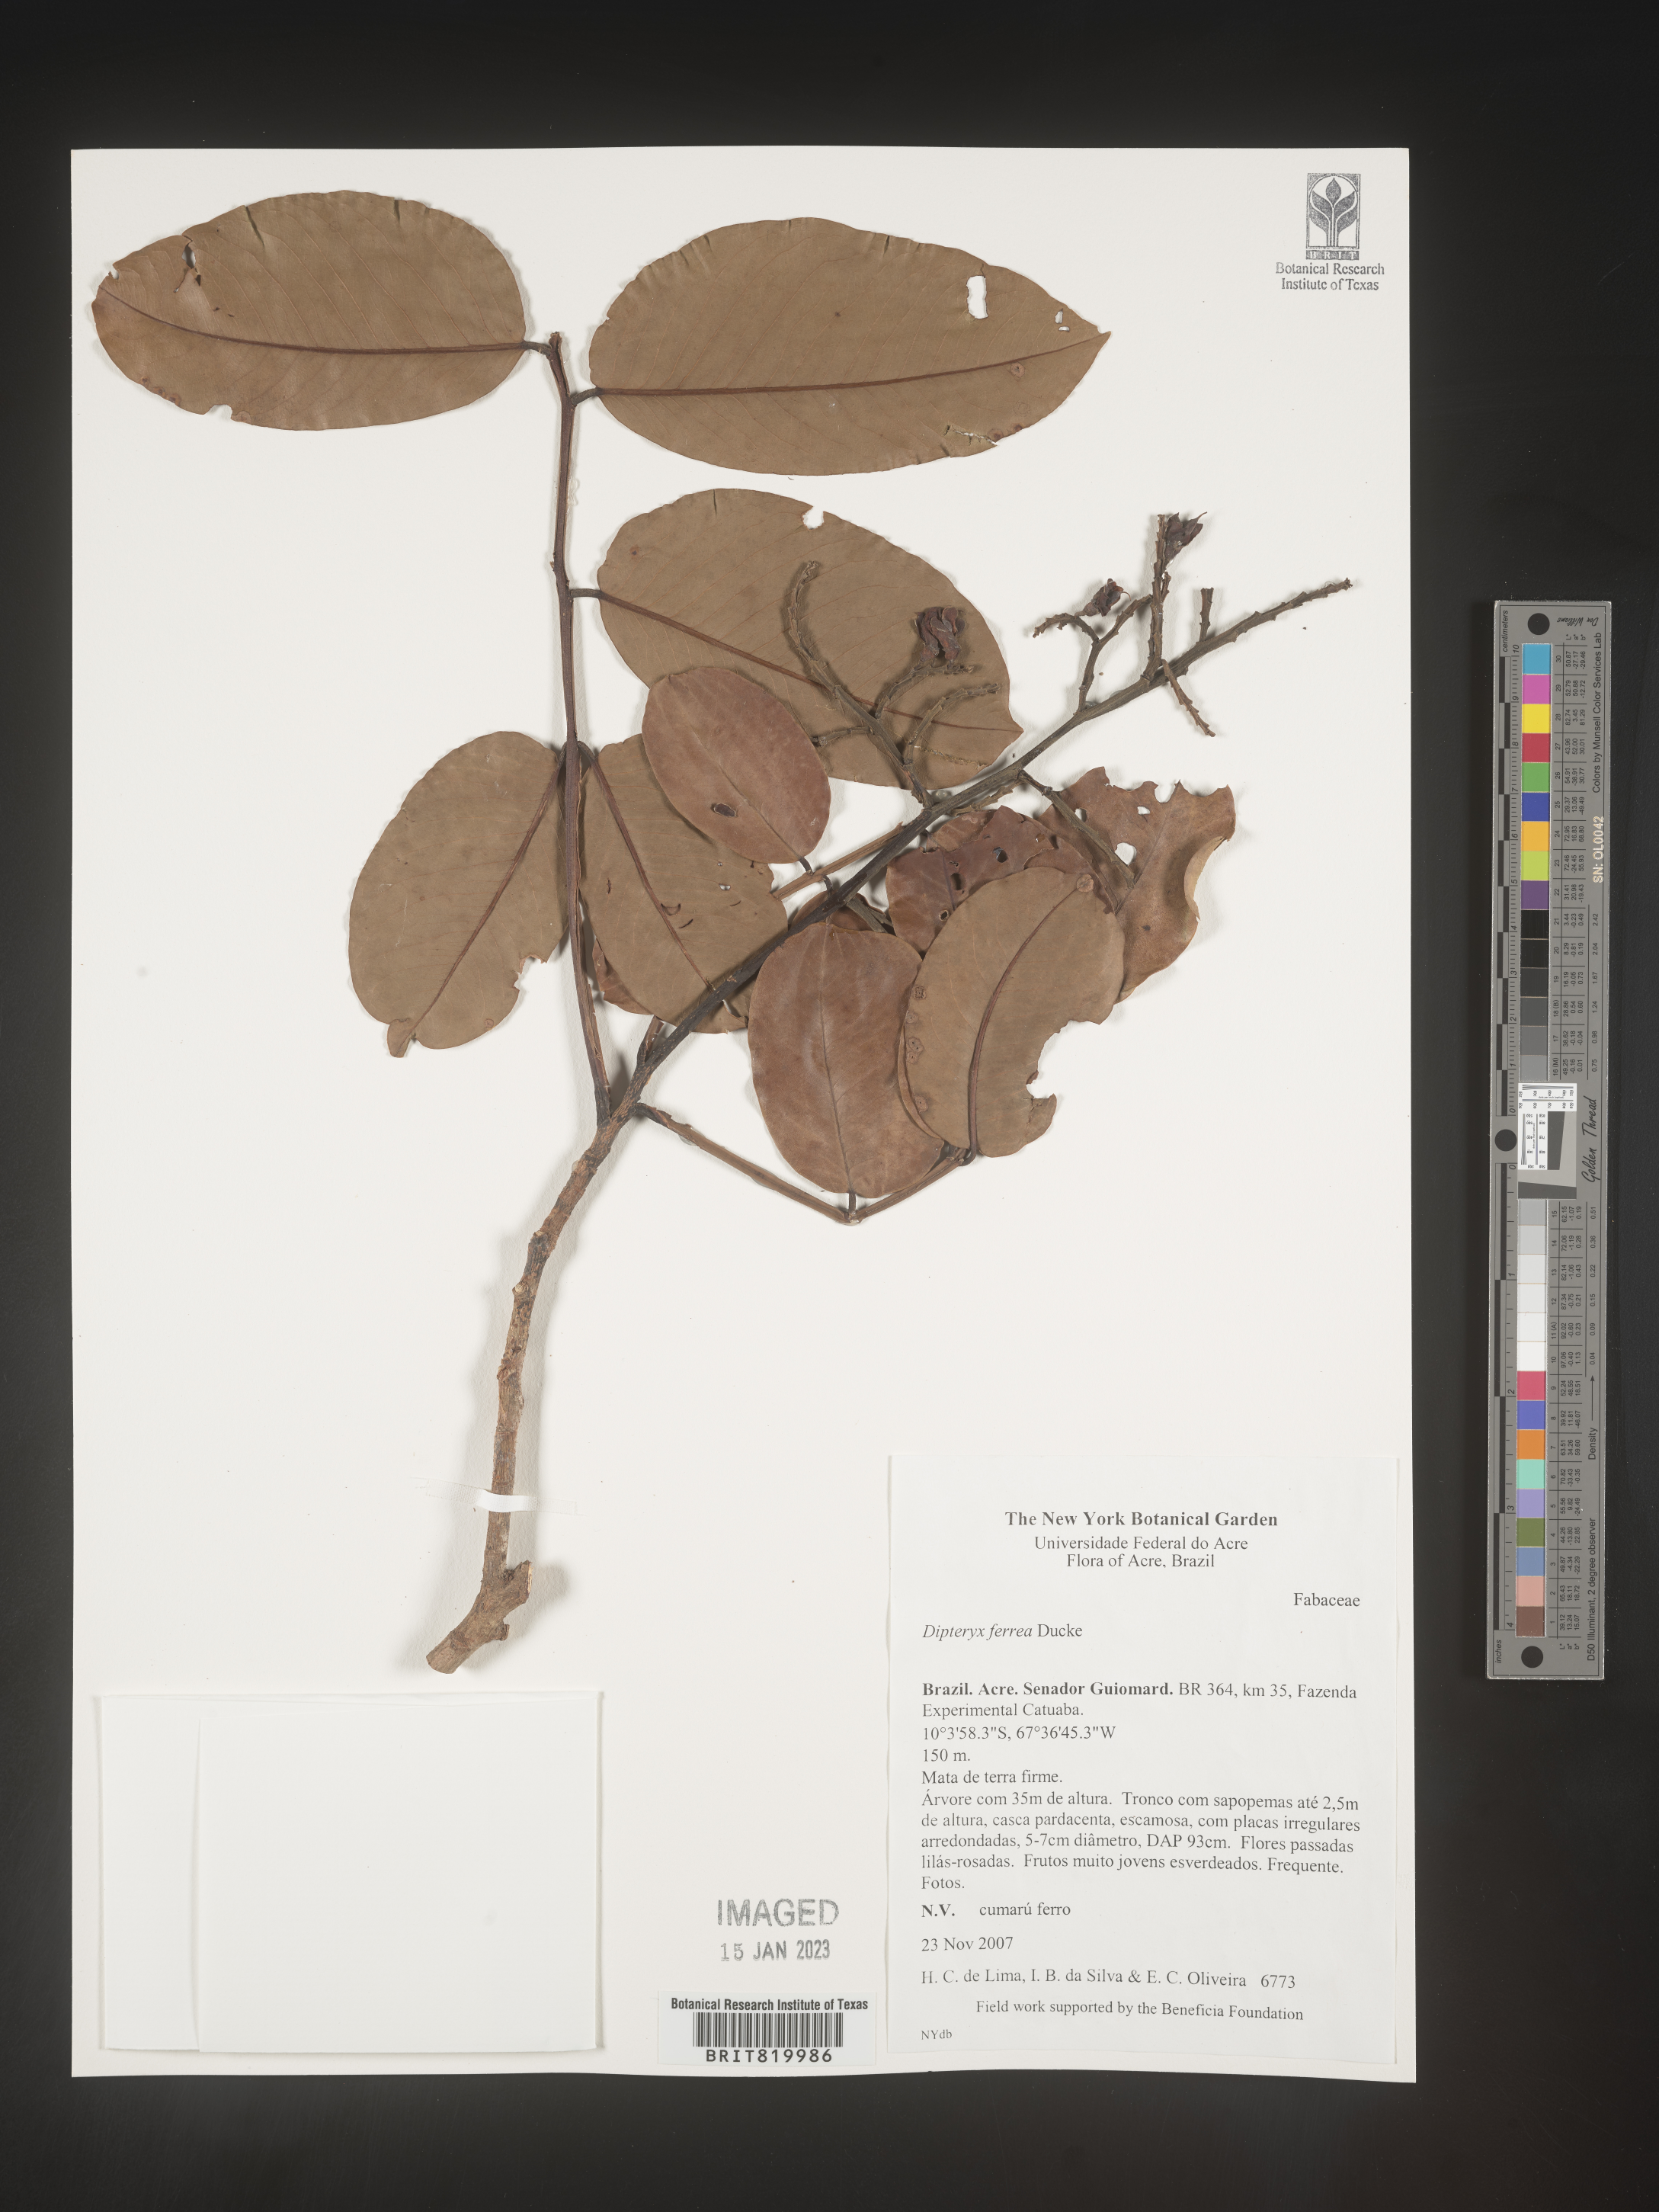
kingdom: Plantae
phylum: Tracheophyta
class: Magnoliopsida
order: Fabales
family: Fabaceae
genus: Dipteryx
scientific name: Dipteryx
